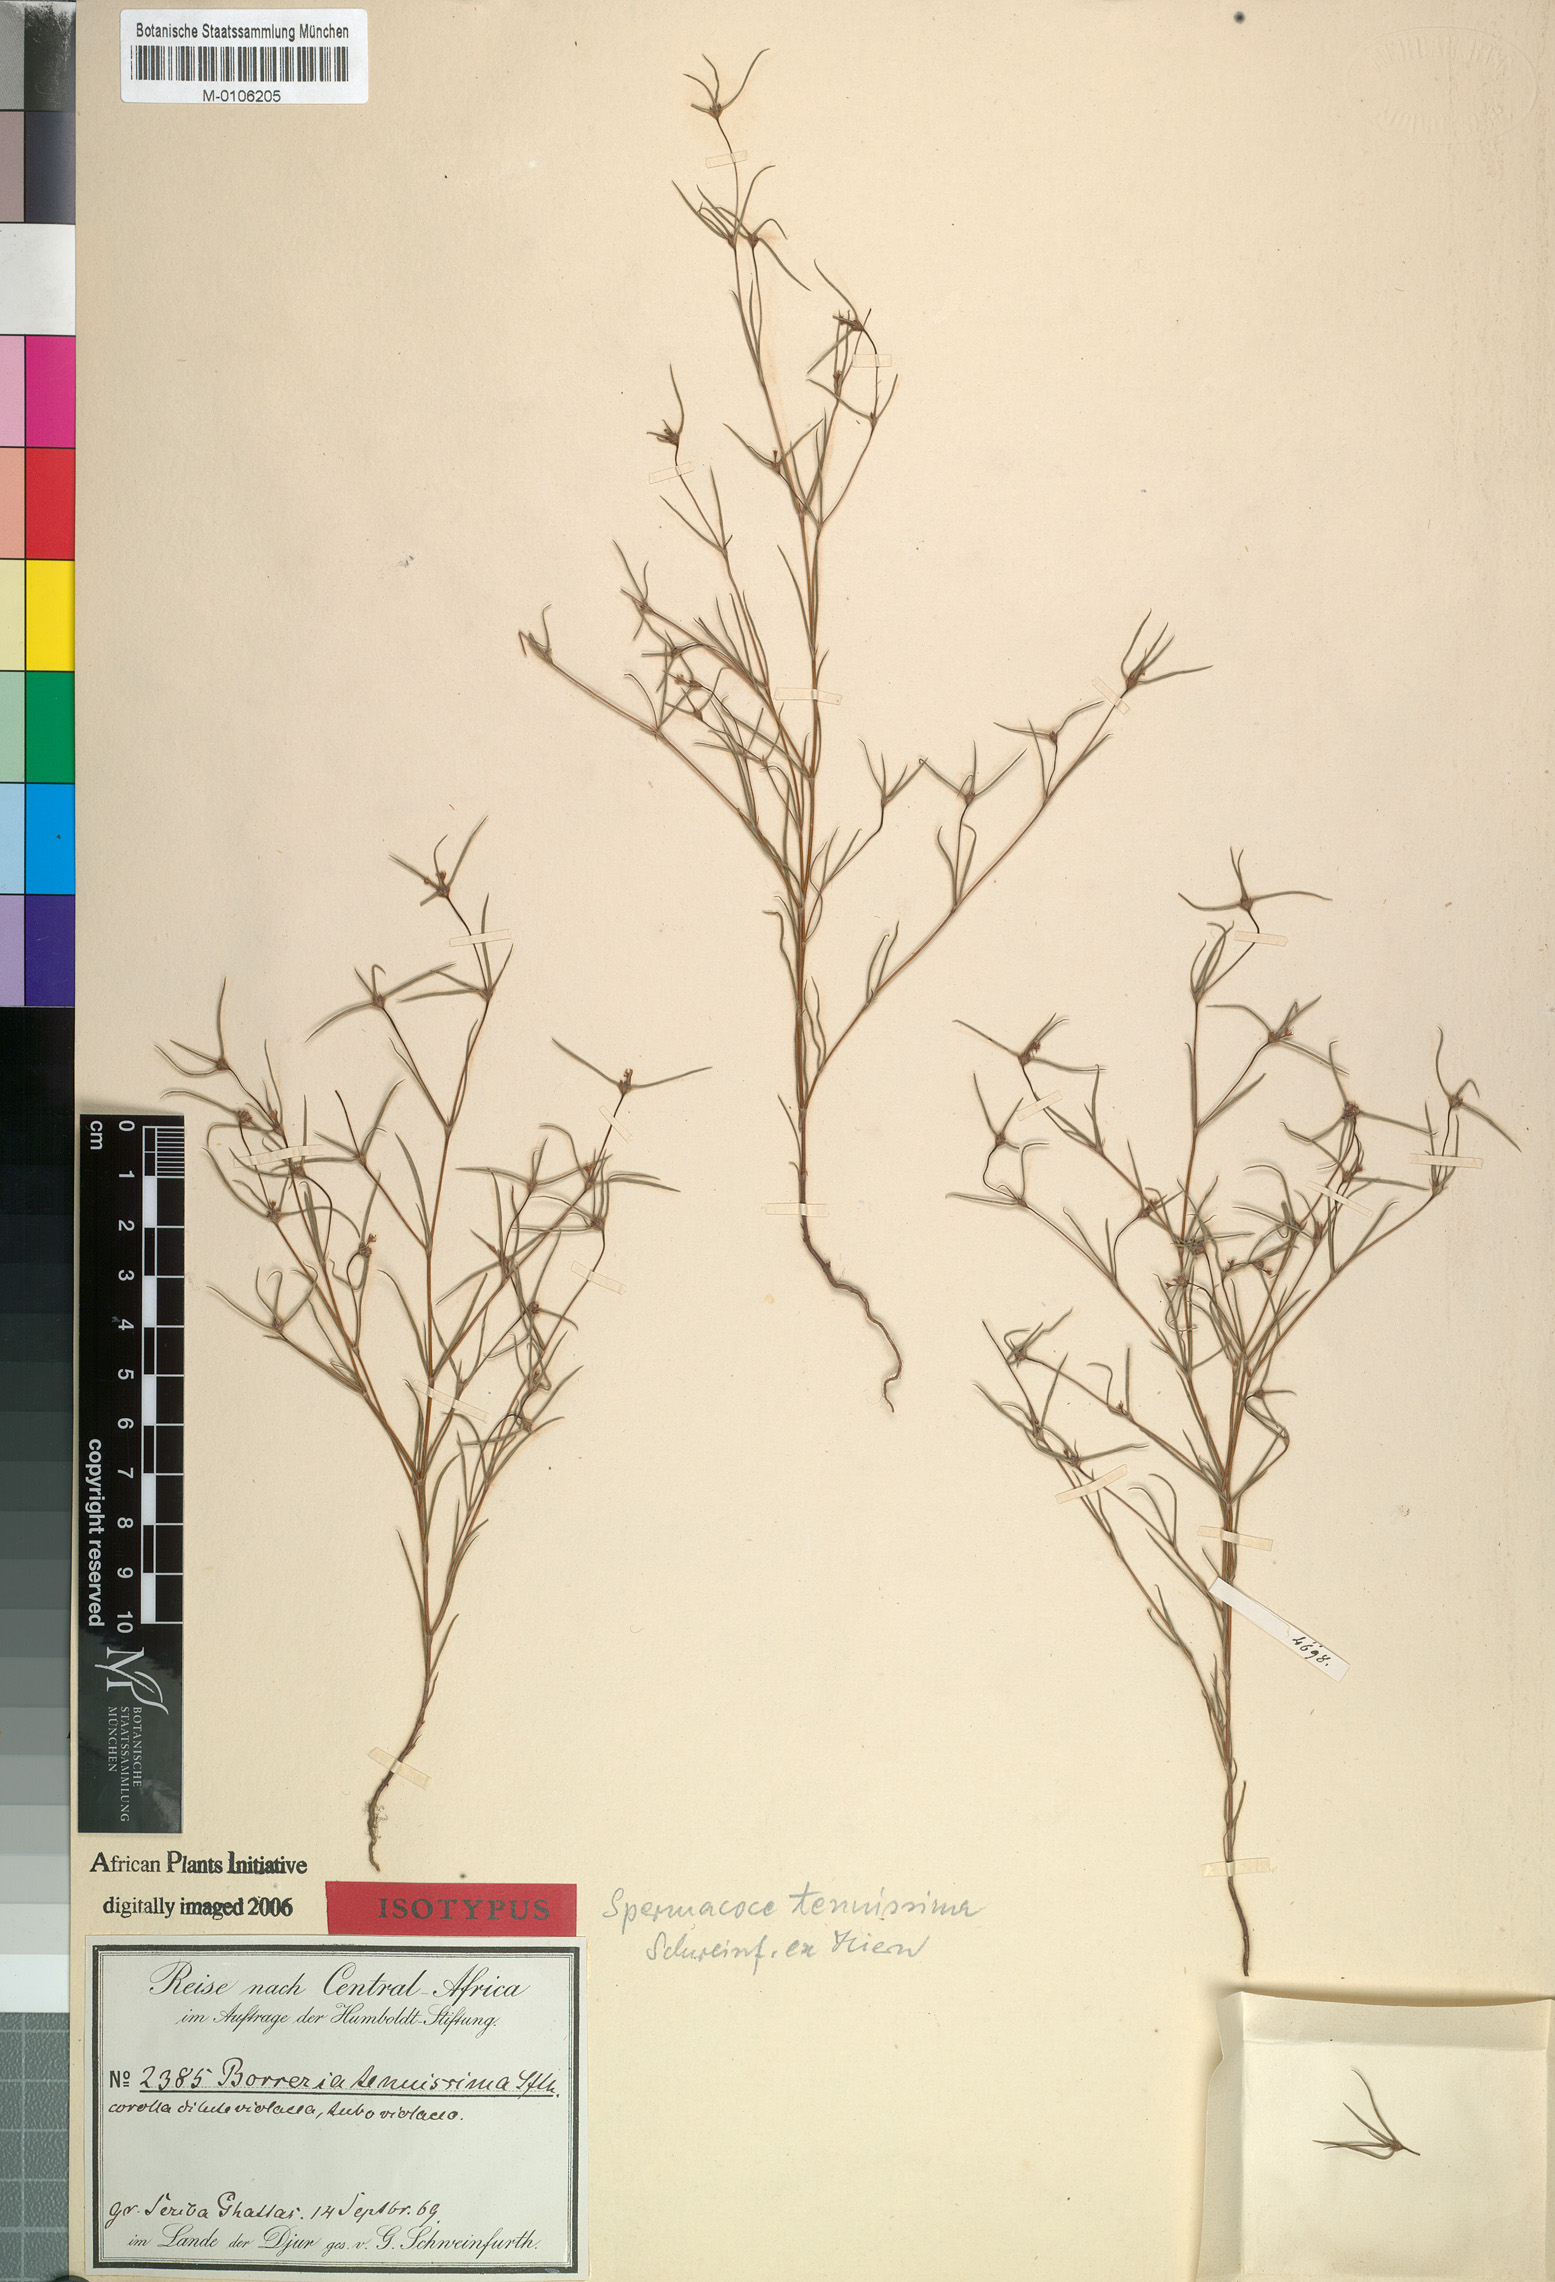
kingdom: Plantae
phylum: Tracheophyta
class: Magnoliopsida
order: Gentianales
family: Rubiaceae
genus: Spermacoce
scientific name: Spermacoce tenuissima
